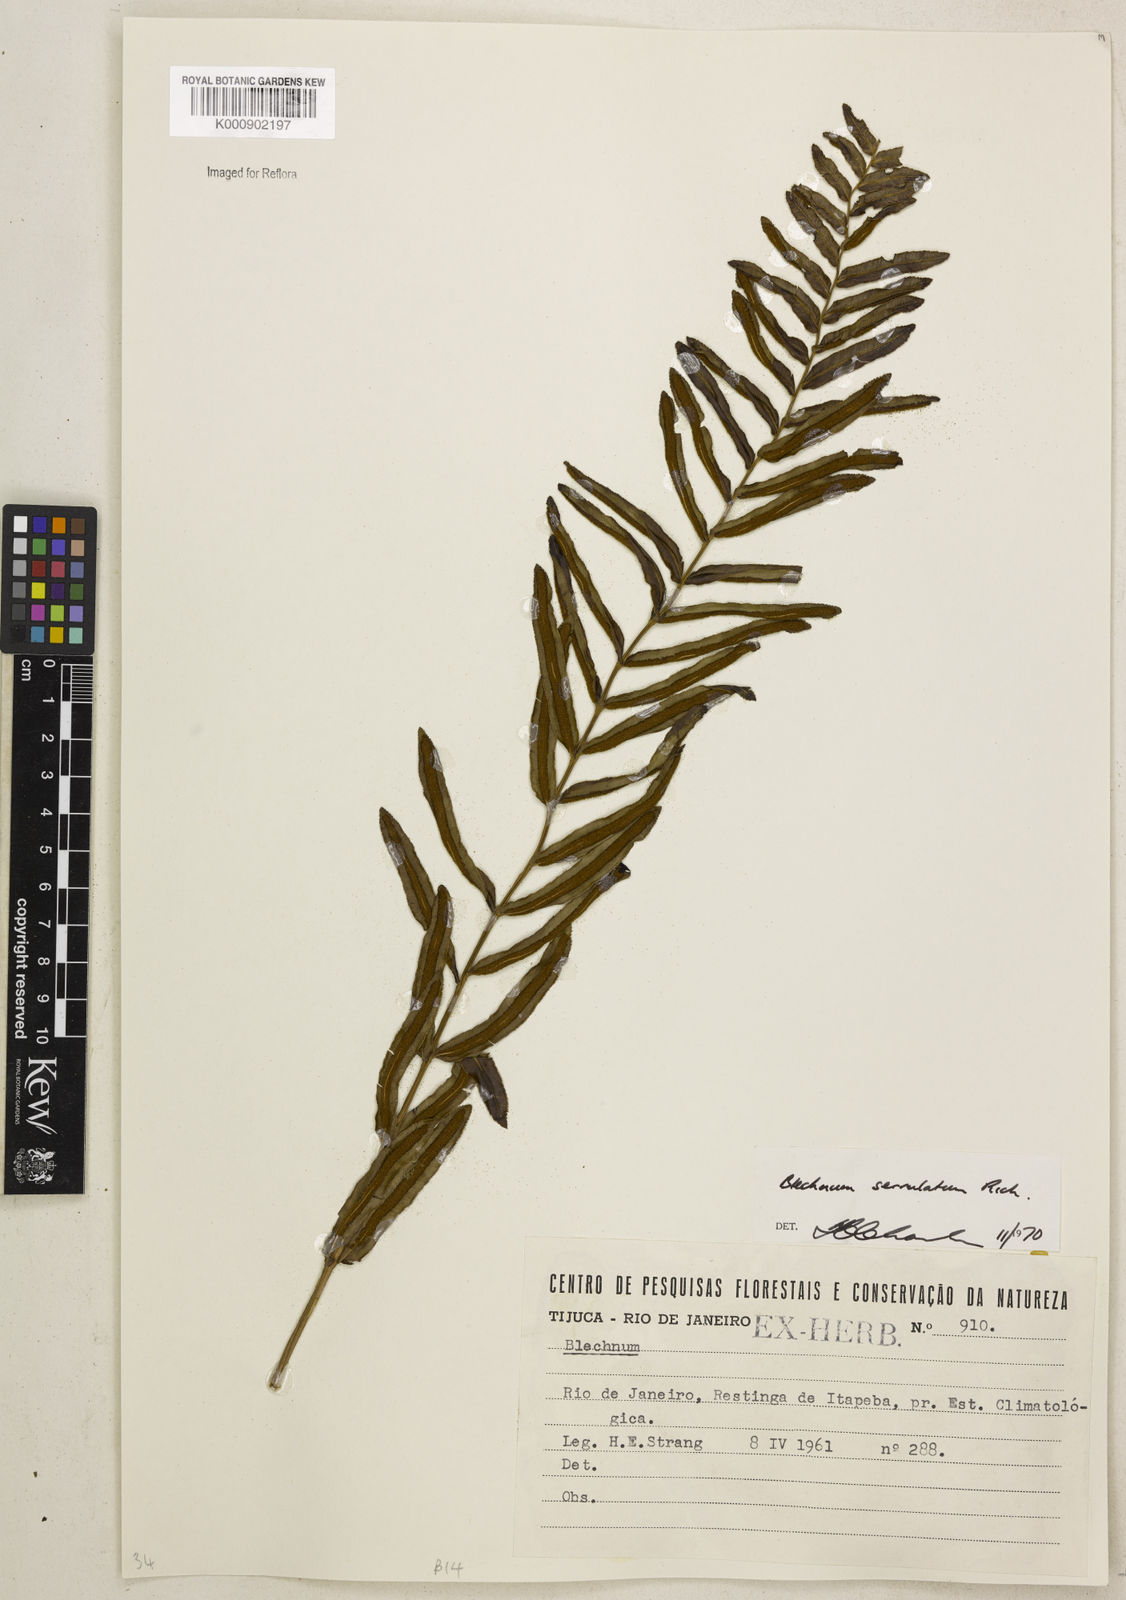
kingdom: Plantae
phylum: Tracheophyta
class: Polypodiopsida
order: Polypodiales
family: Blechnaceae
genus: Telmatoblechnum
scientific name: Telmatoblechnum serrulatum
